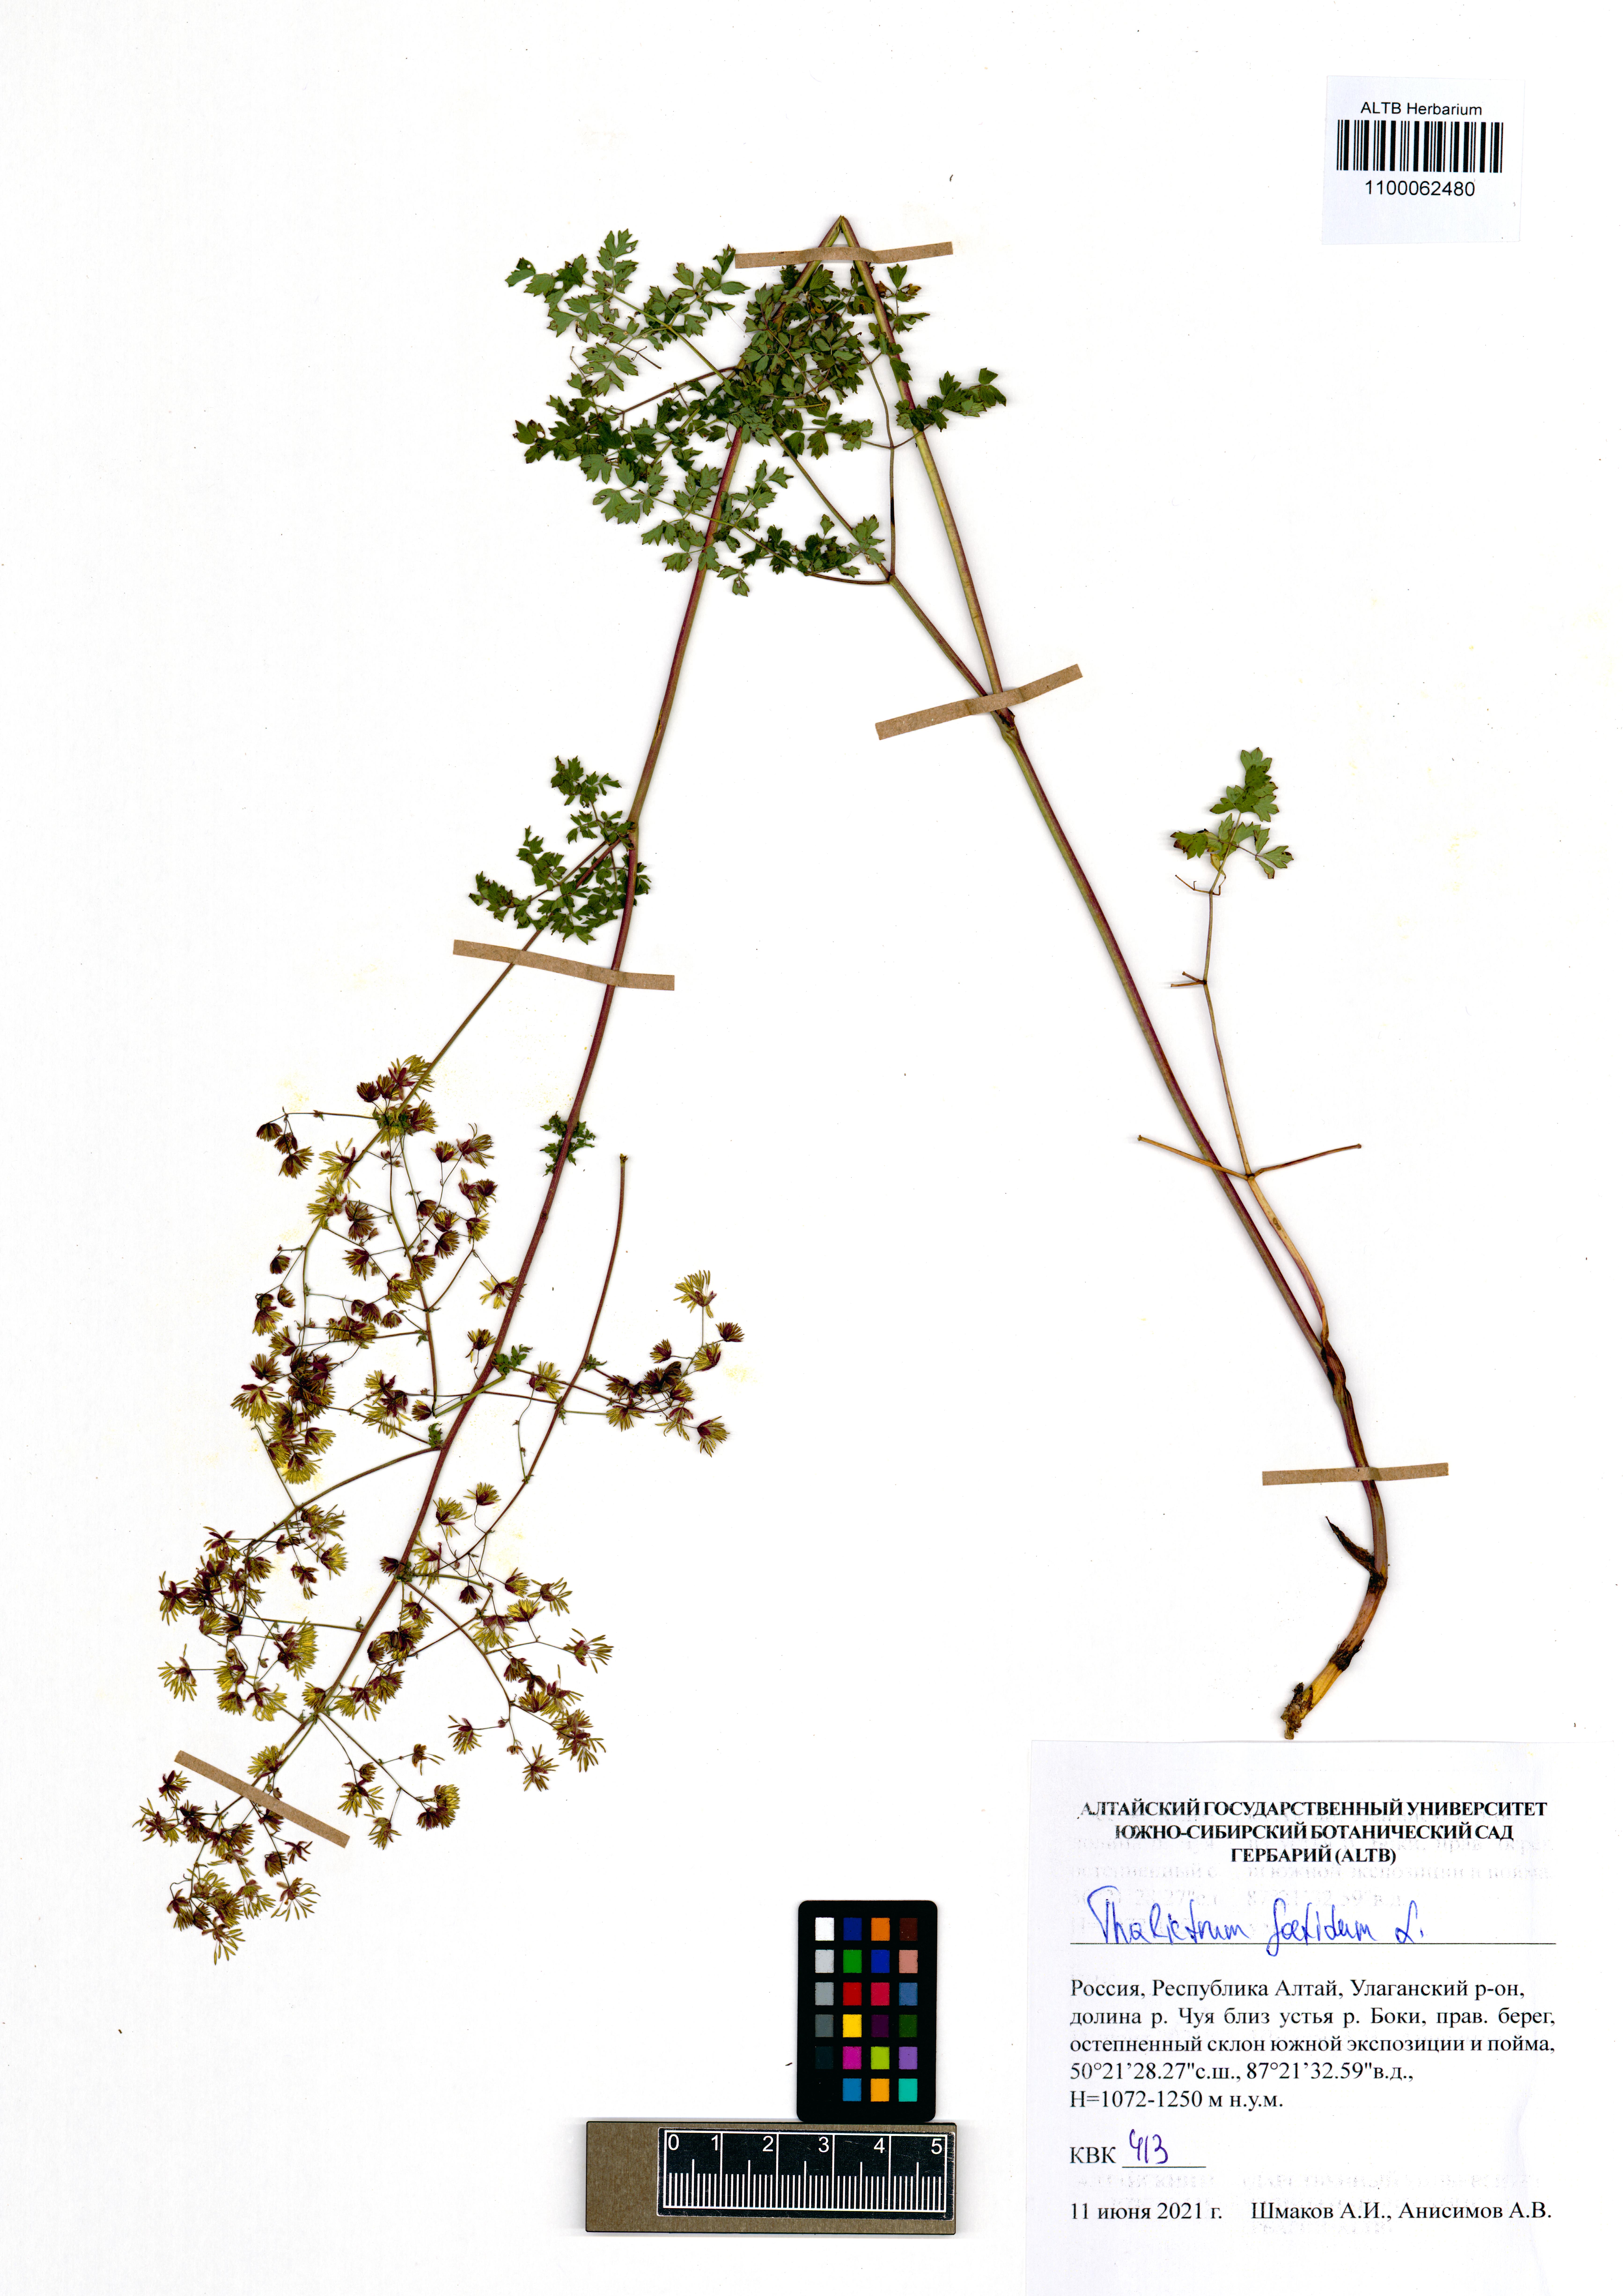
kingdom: Plantae
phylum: Tracheophyta
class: Magnoliopsida
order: Ranunculales
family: Ranunculaceae
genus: Thalictrum
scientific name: Thalictrum foetidum
